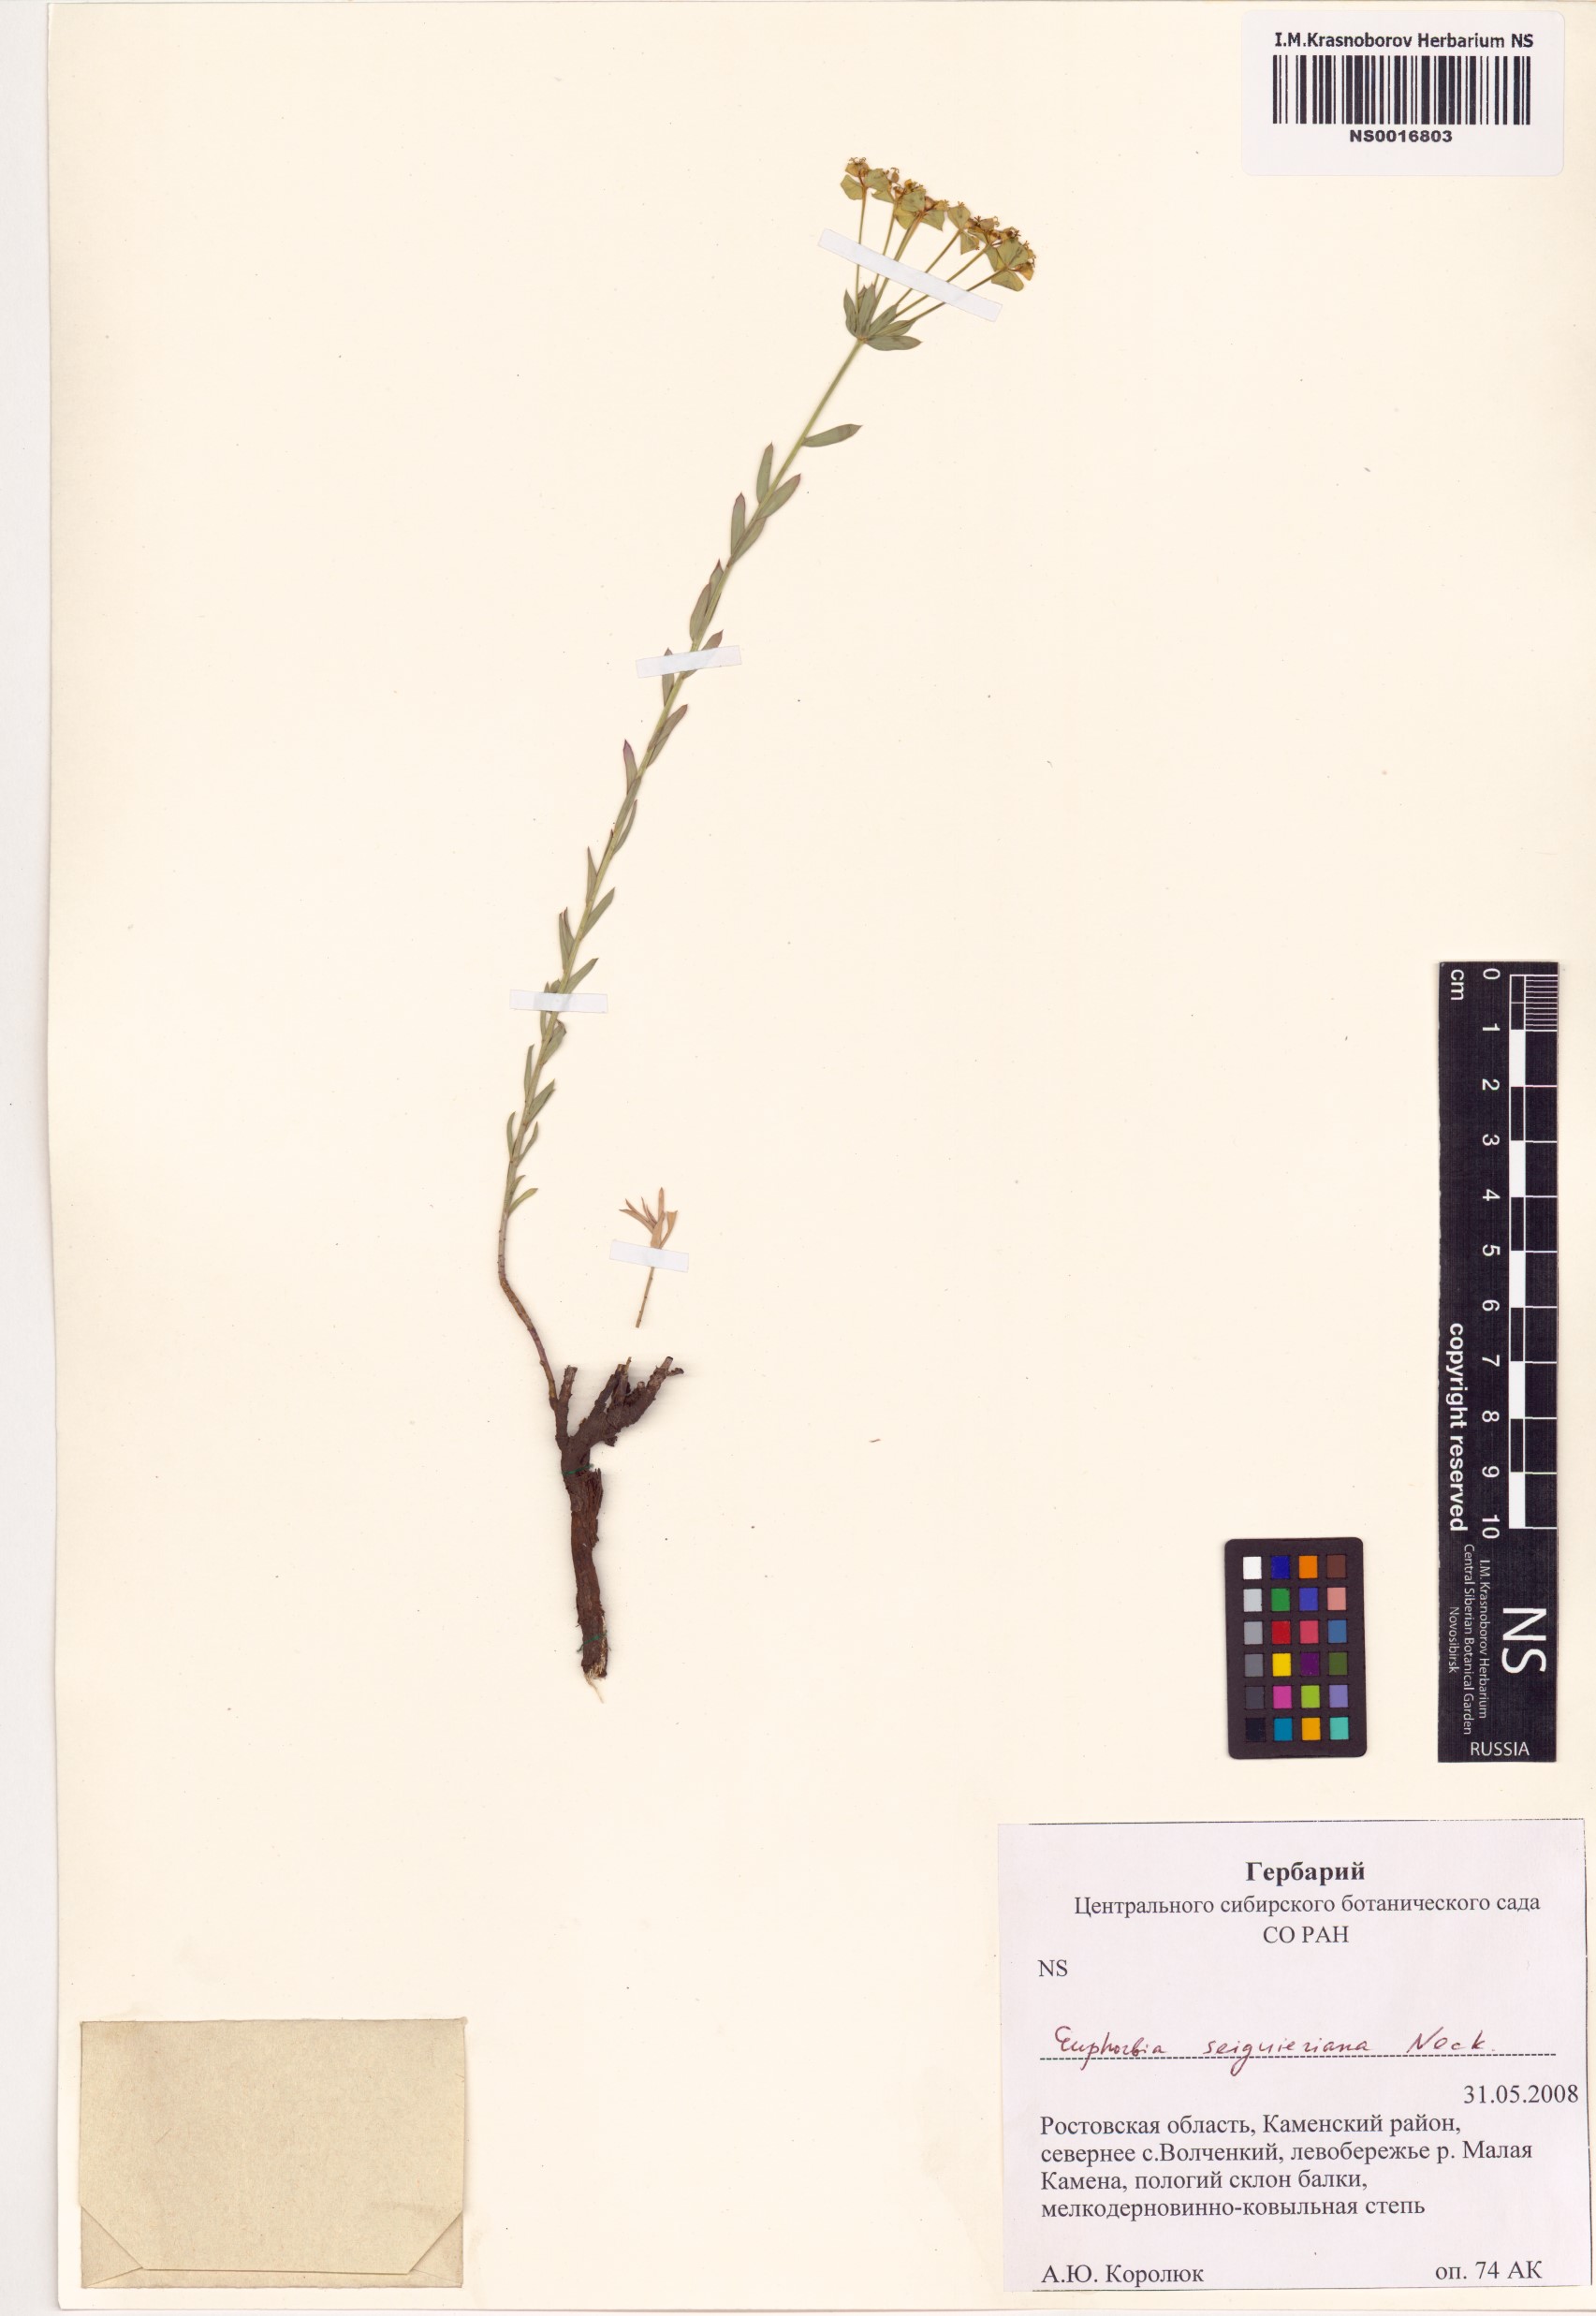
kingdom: Plantae
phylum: Tracheophyta
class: Magnoliopsida
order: Malpighiales
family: Euphorbiaceae
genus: Euphorbia
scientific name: Euphorbia seguieriana
